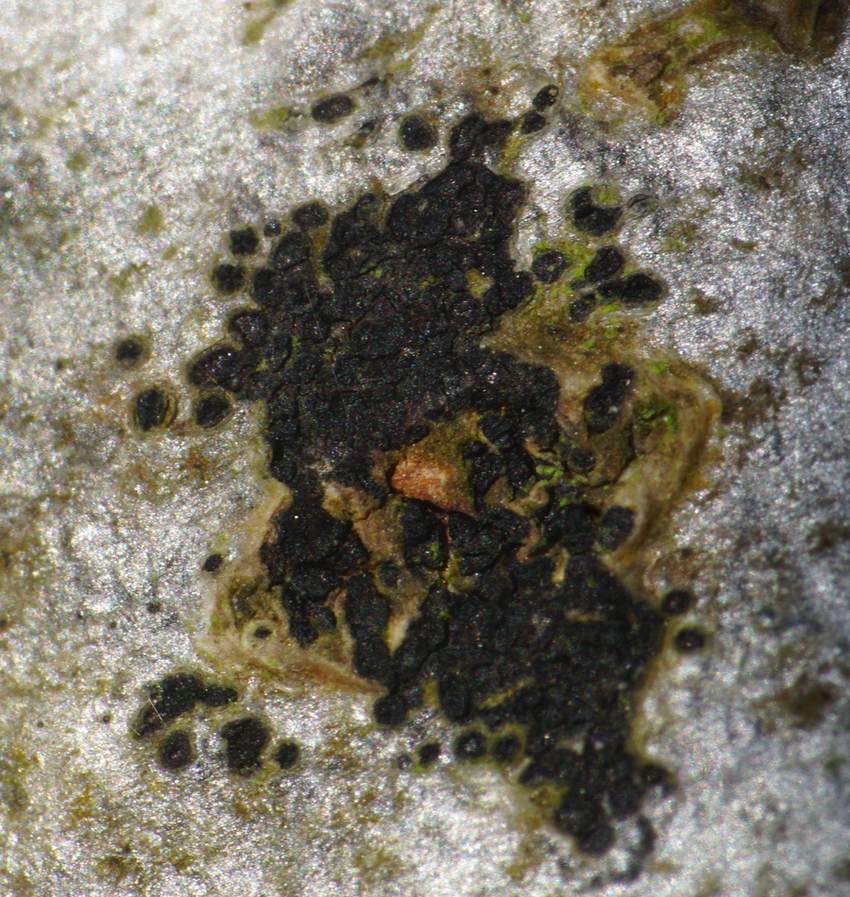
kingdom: Fungi
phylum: Ascomycota
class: Leotiomycetes
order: Rhytismatales
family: Ascodichaenaceae
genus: Ascodichaena
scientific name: Ascodichaena rugosa
